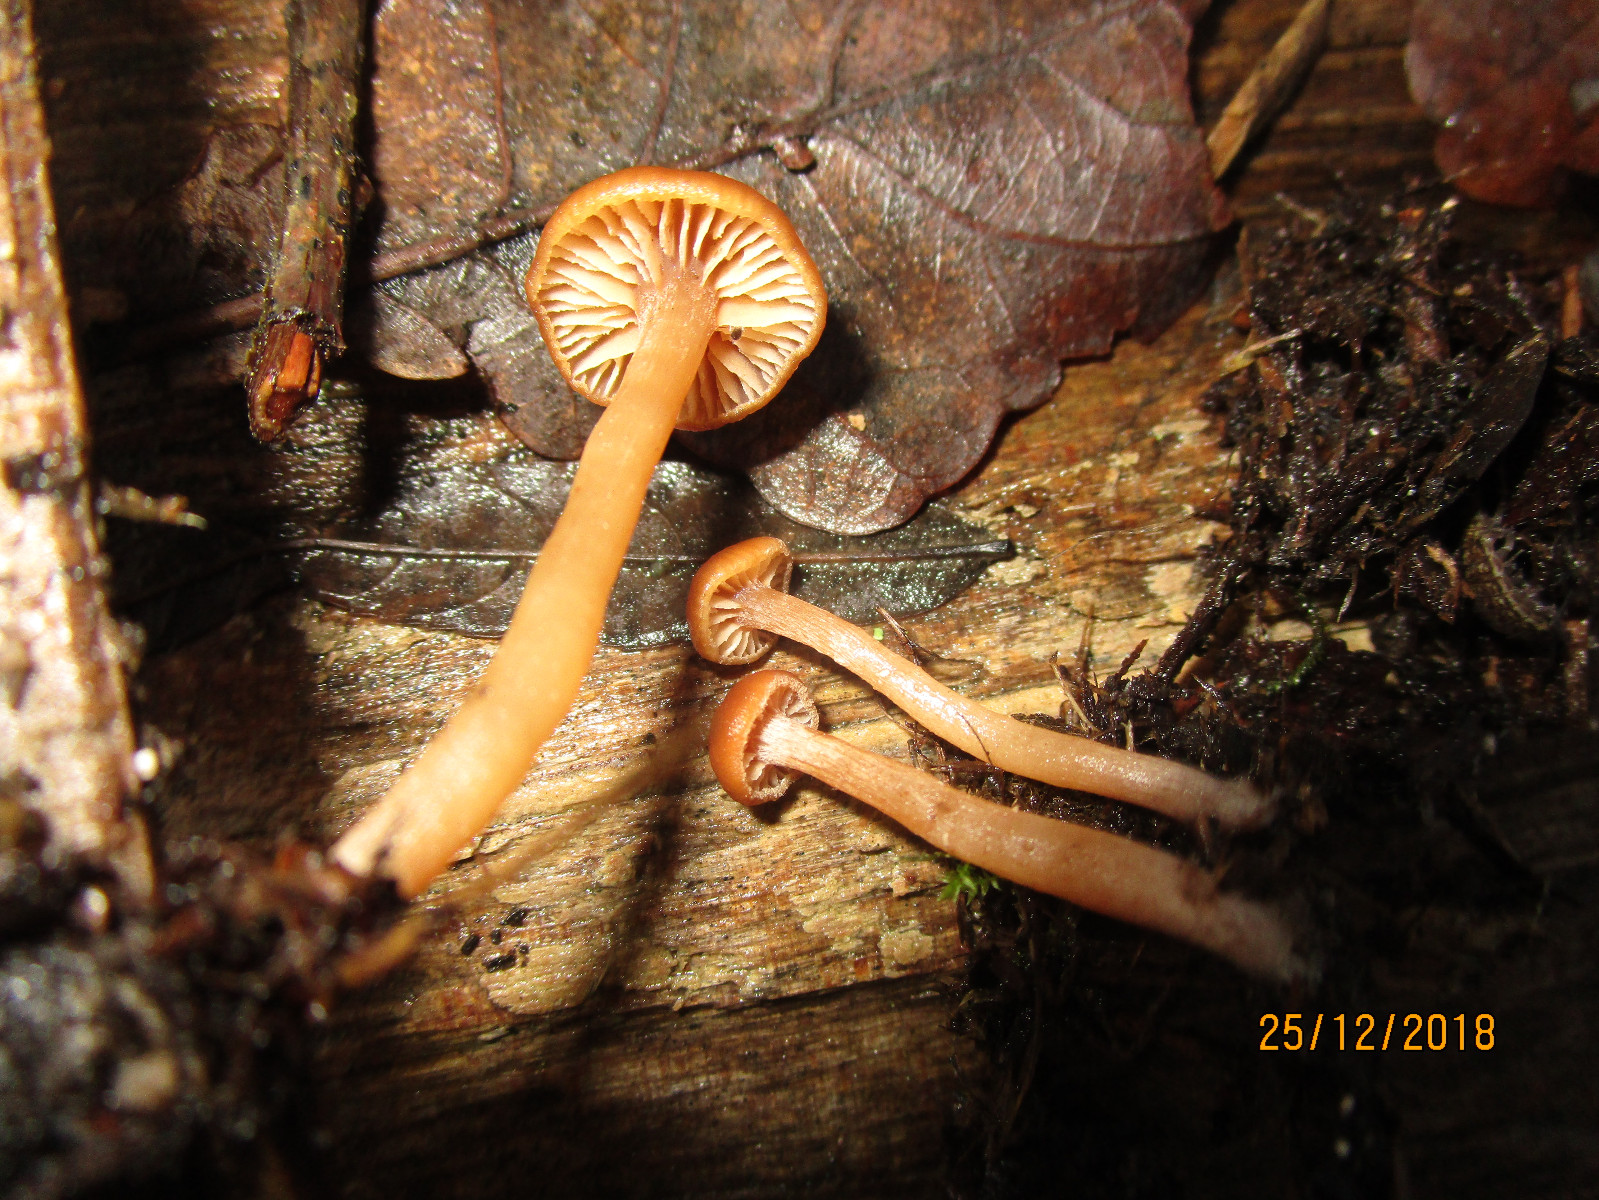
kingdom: Fungi
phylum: Basidiomycota
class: Agaricomycetes
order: Agaricales
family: Tubariaceae
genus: Tubaria
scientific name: Tubaria furfuracea
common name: kliddet fnughat
